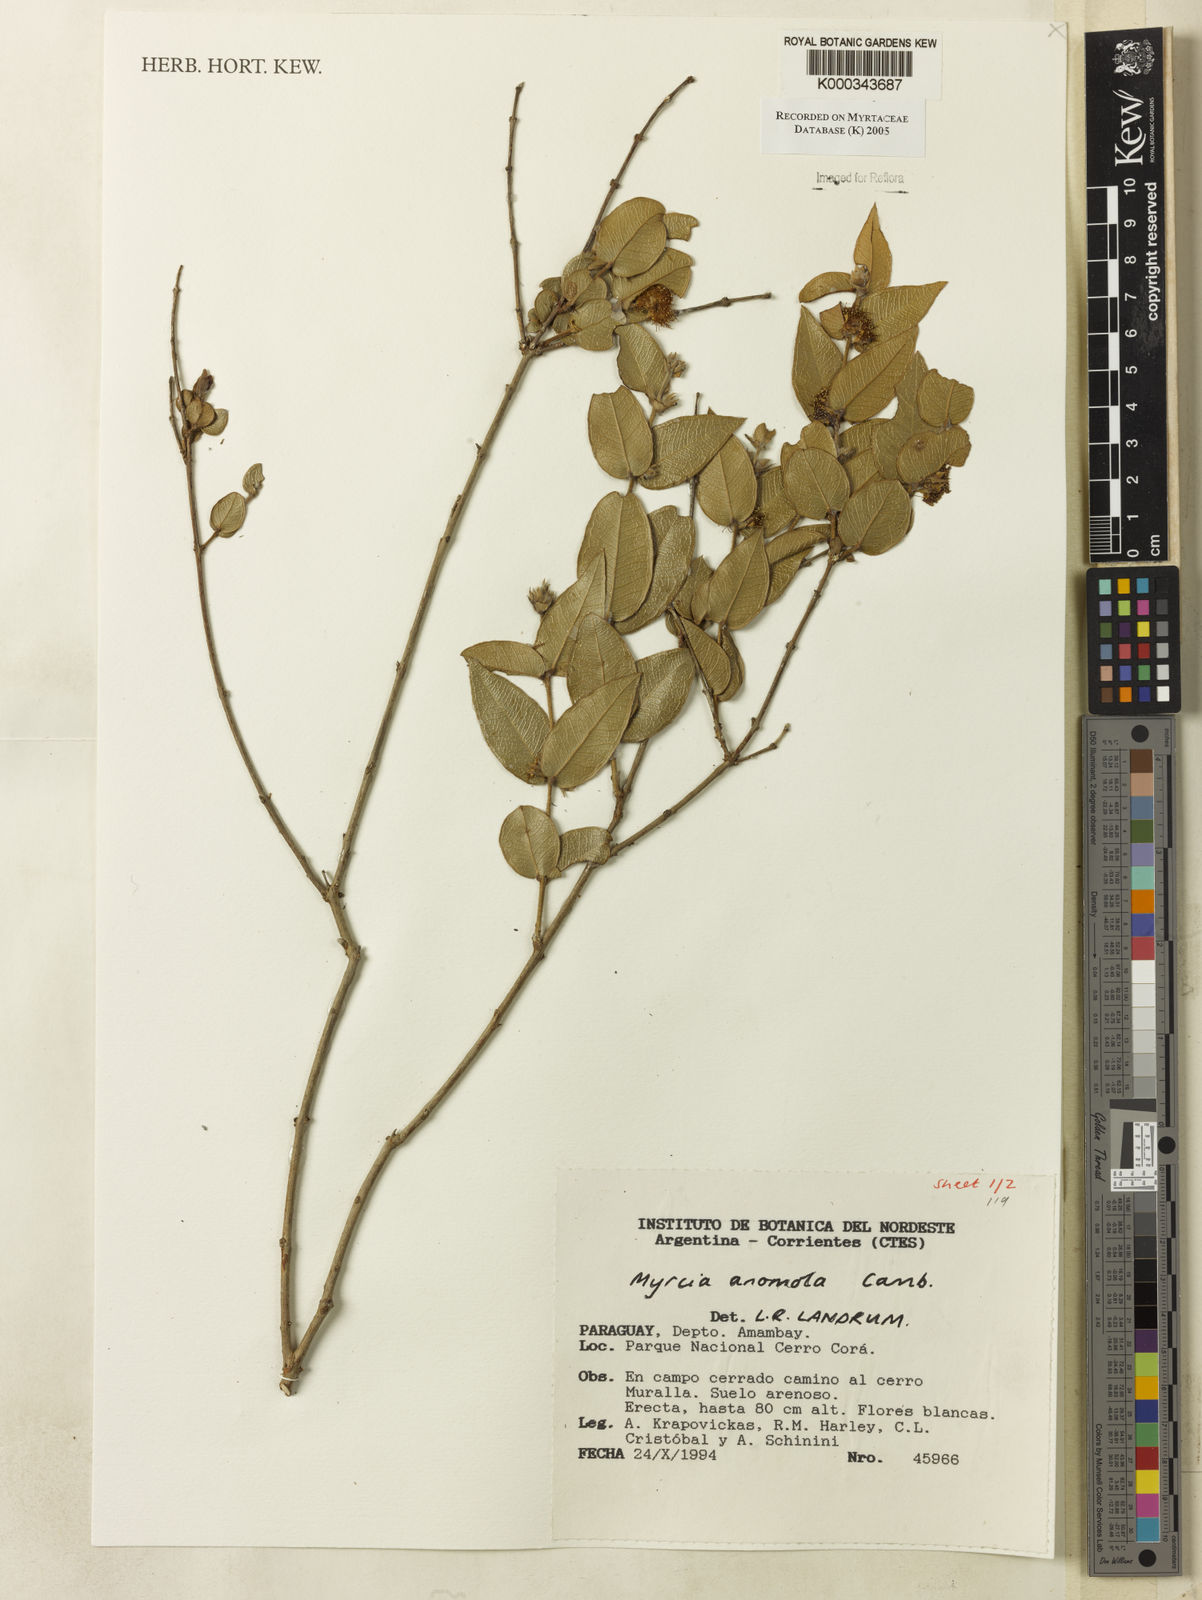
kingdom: Plantae
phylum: Tracheophyta
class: Magnoliopsida
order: Myrtales
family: Myrtaceae
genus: Myrcia
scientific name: Myrcia anomala
